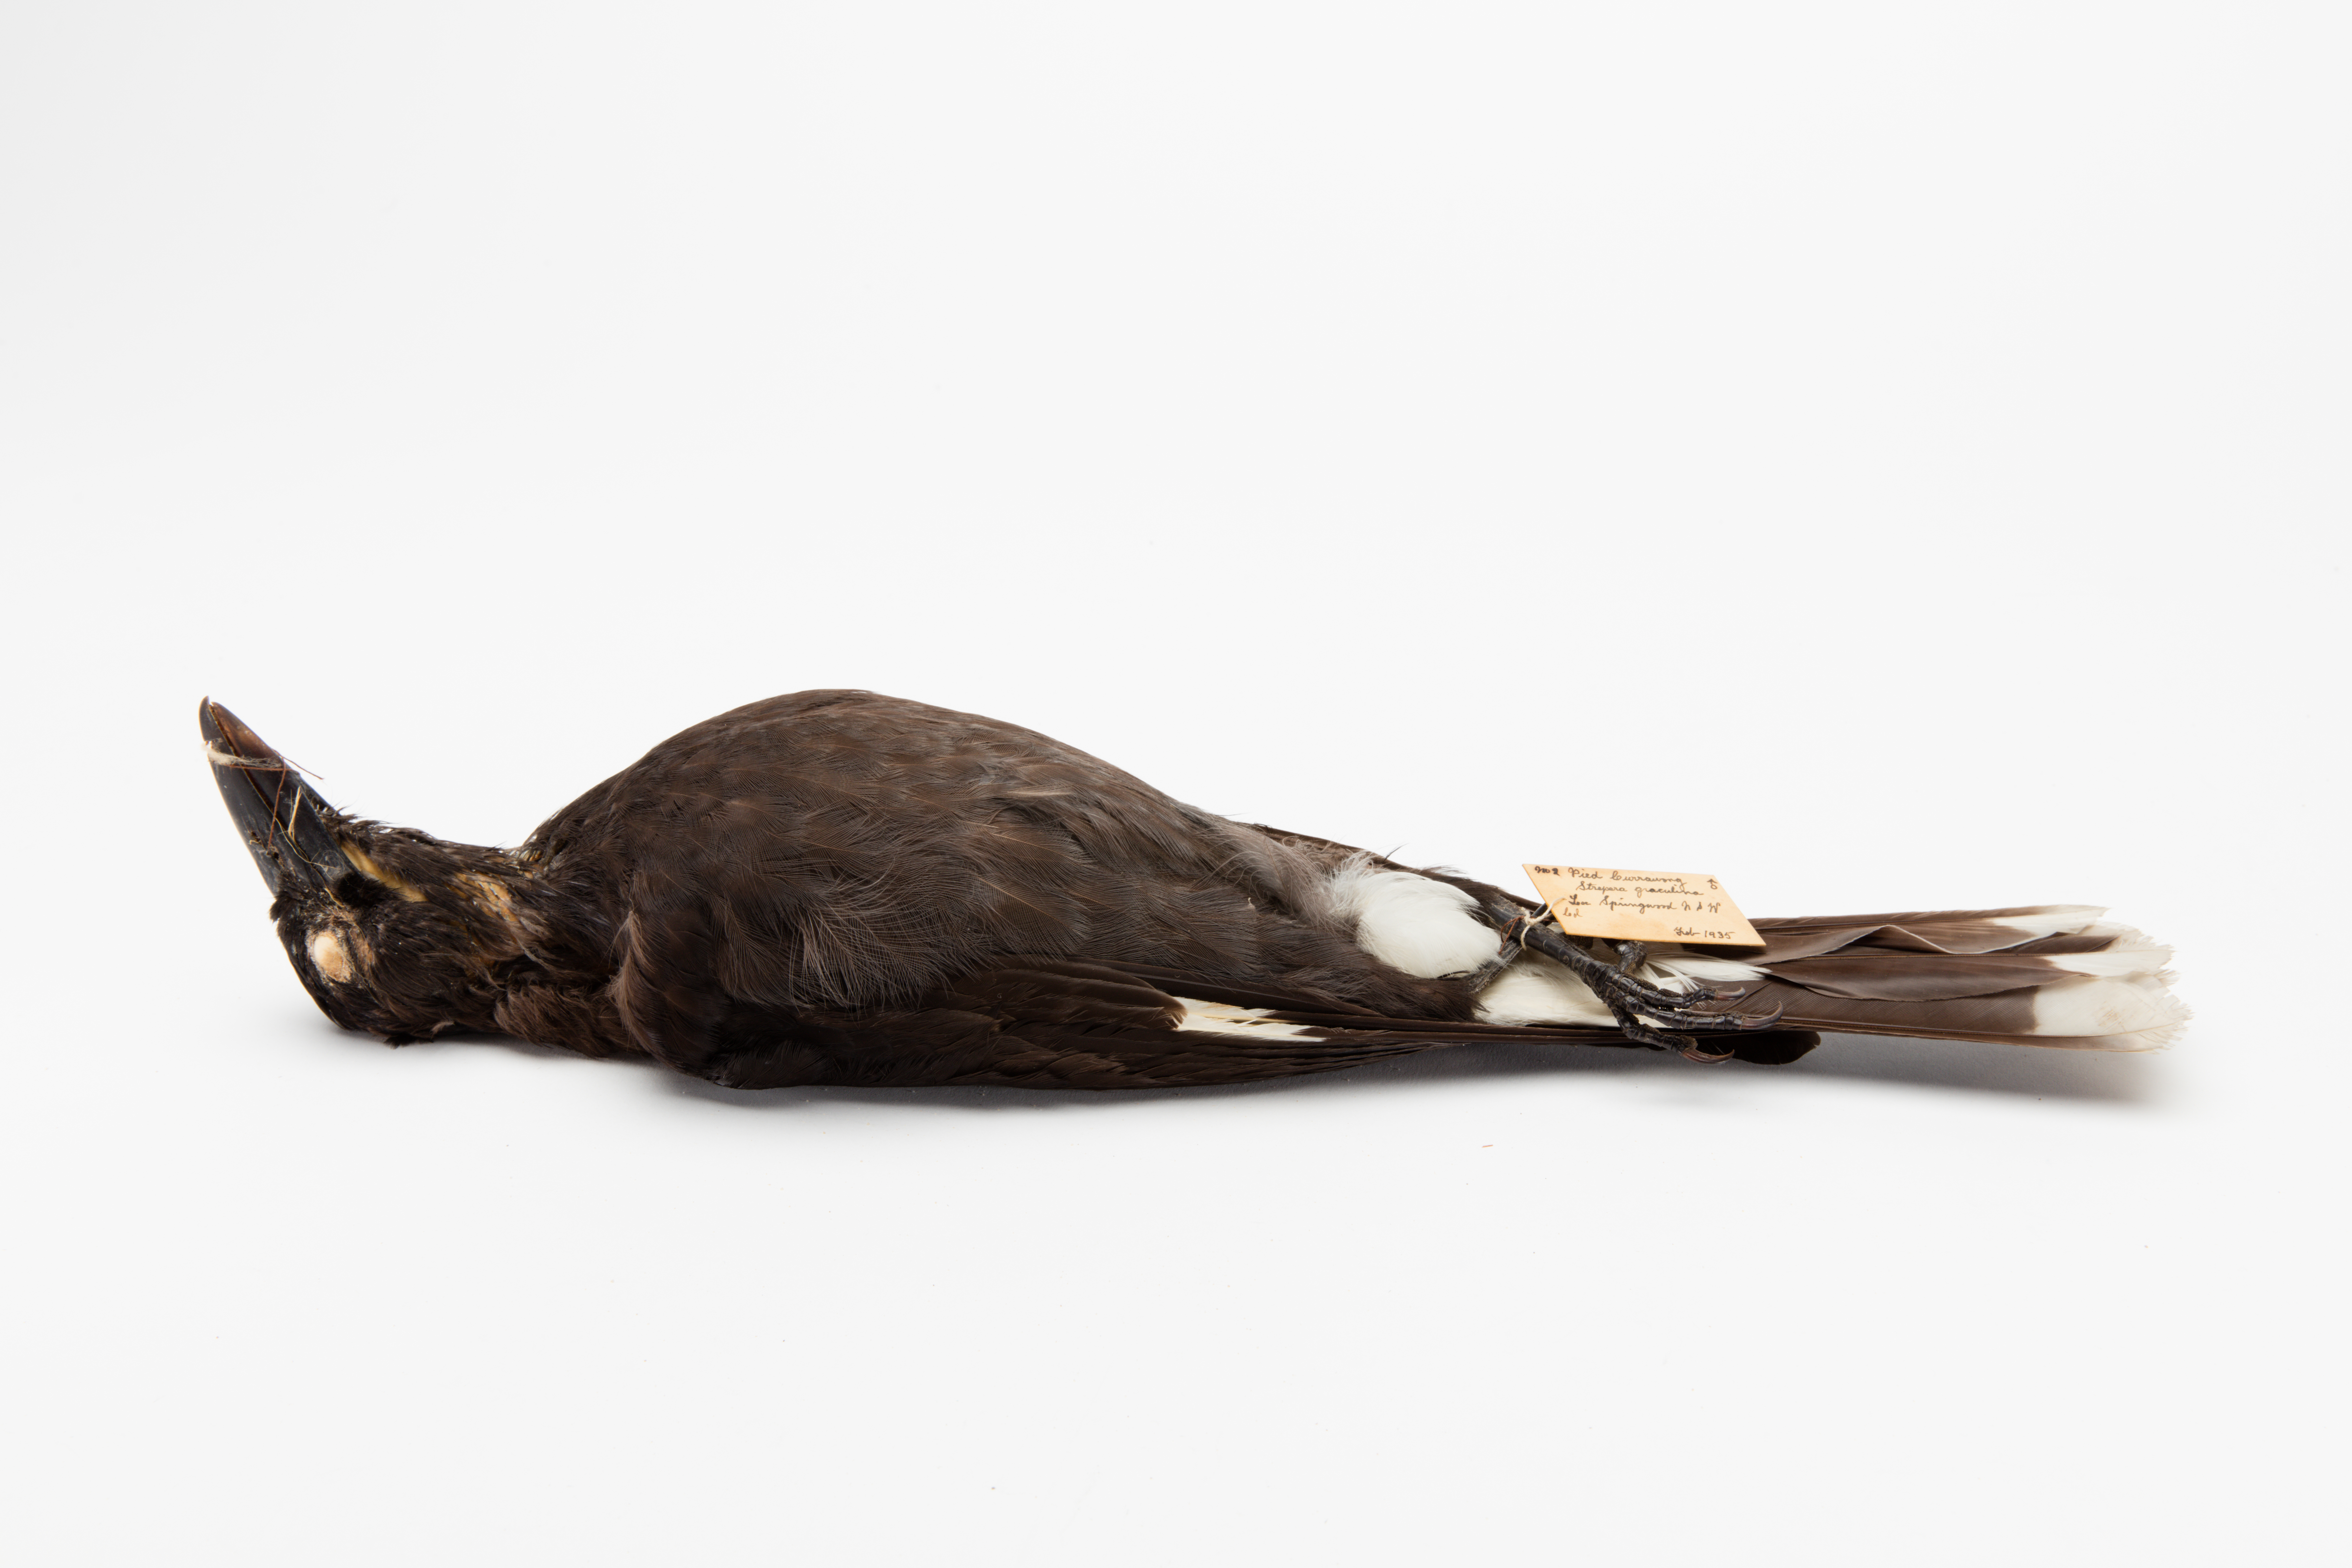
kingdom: Animalia
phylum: Chordata
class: Aves
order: Passeriformes
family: Cracticidae
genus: Strepera
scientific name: Strepera graculina
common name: Pied currawong
